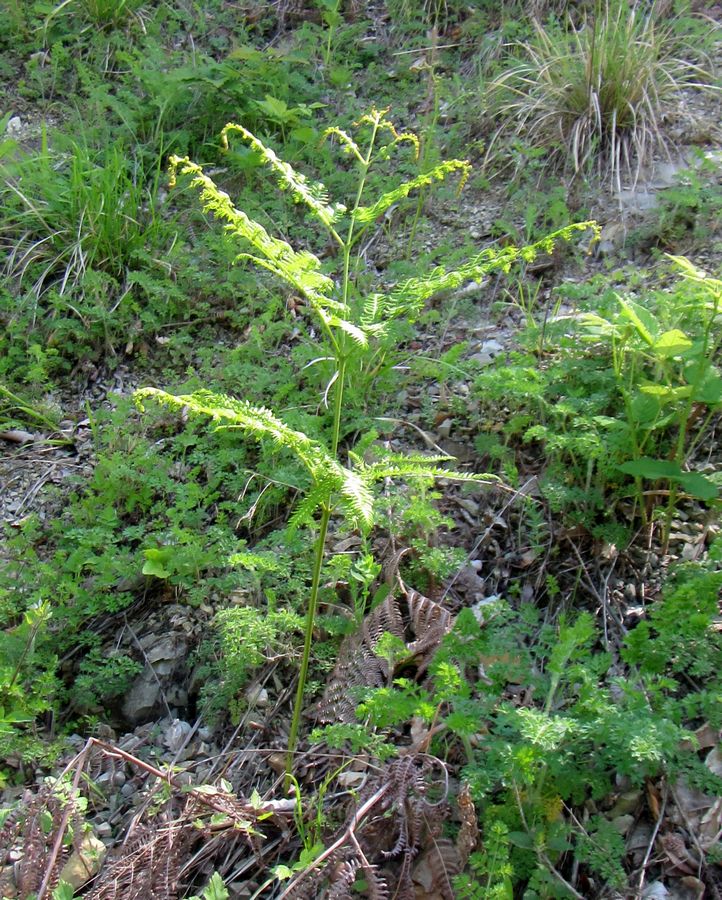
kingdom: Plantae
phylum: Tracheophyta
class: Polypodiopsida
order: Polypodiales
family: Dennstaedtiaceae
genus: Pteridium
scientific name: Pteridium
